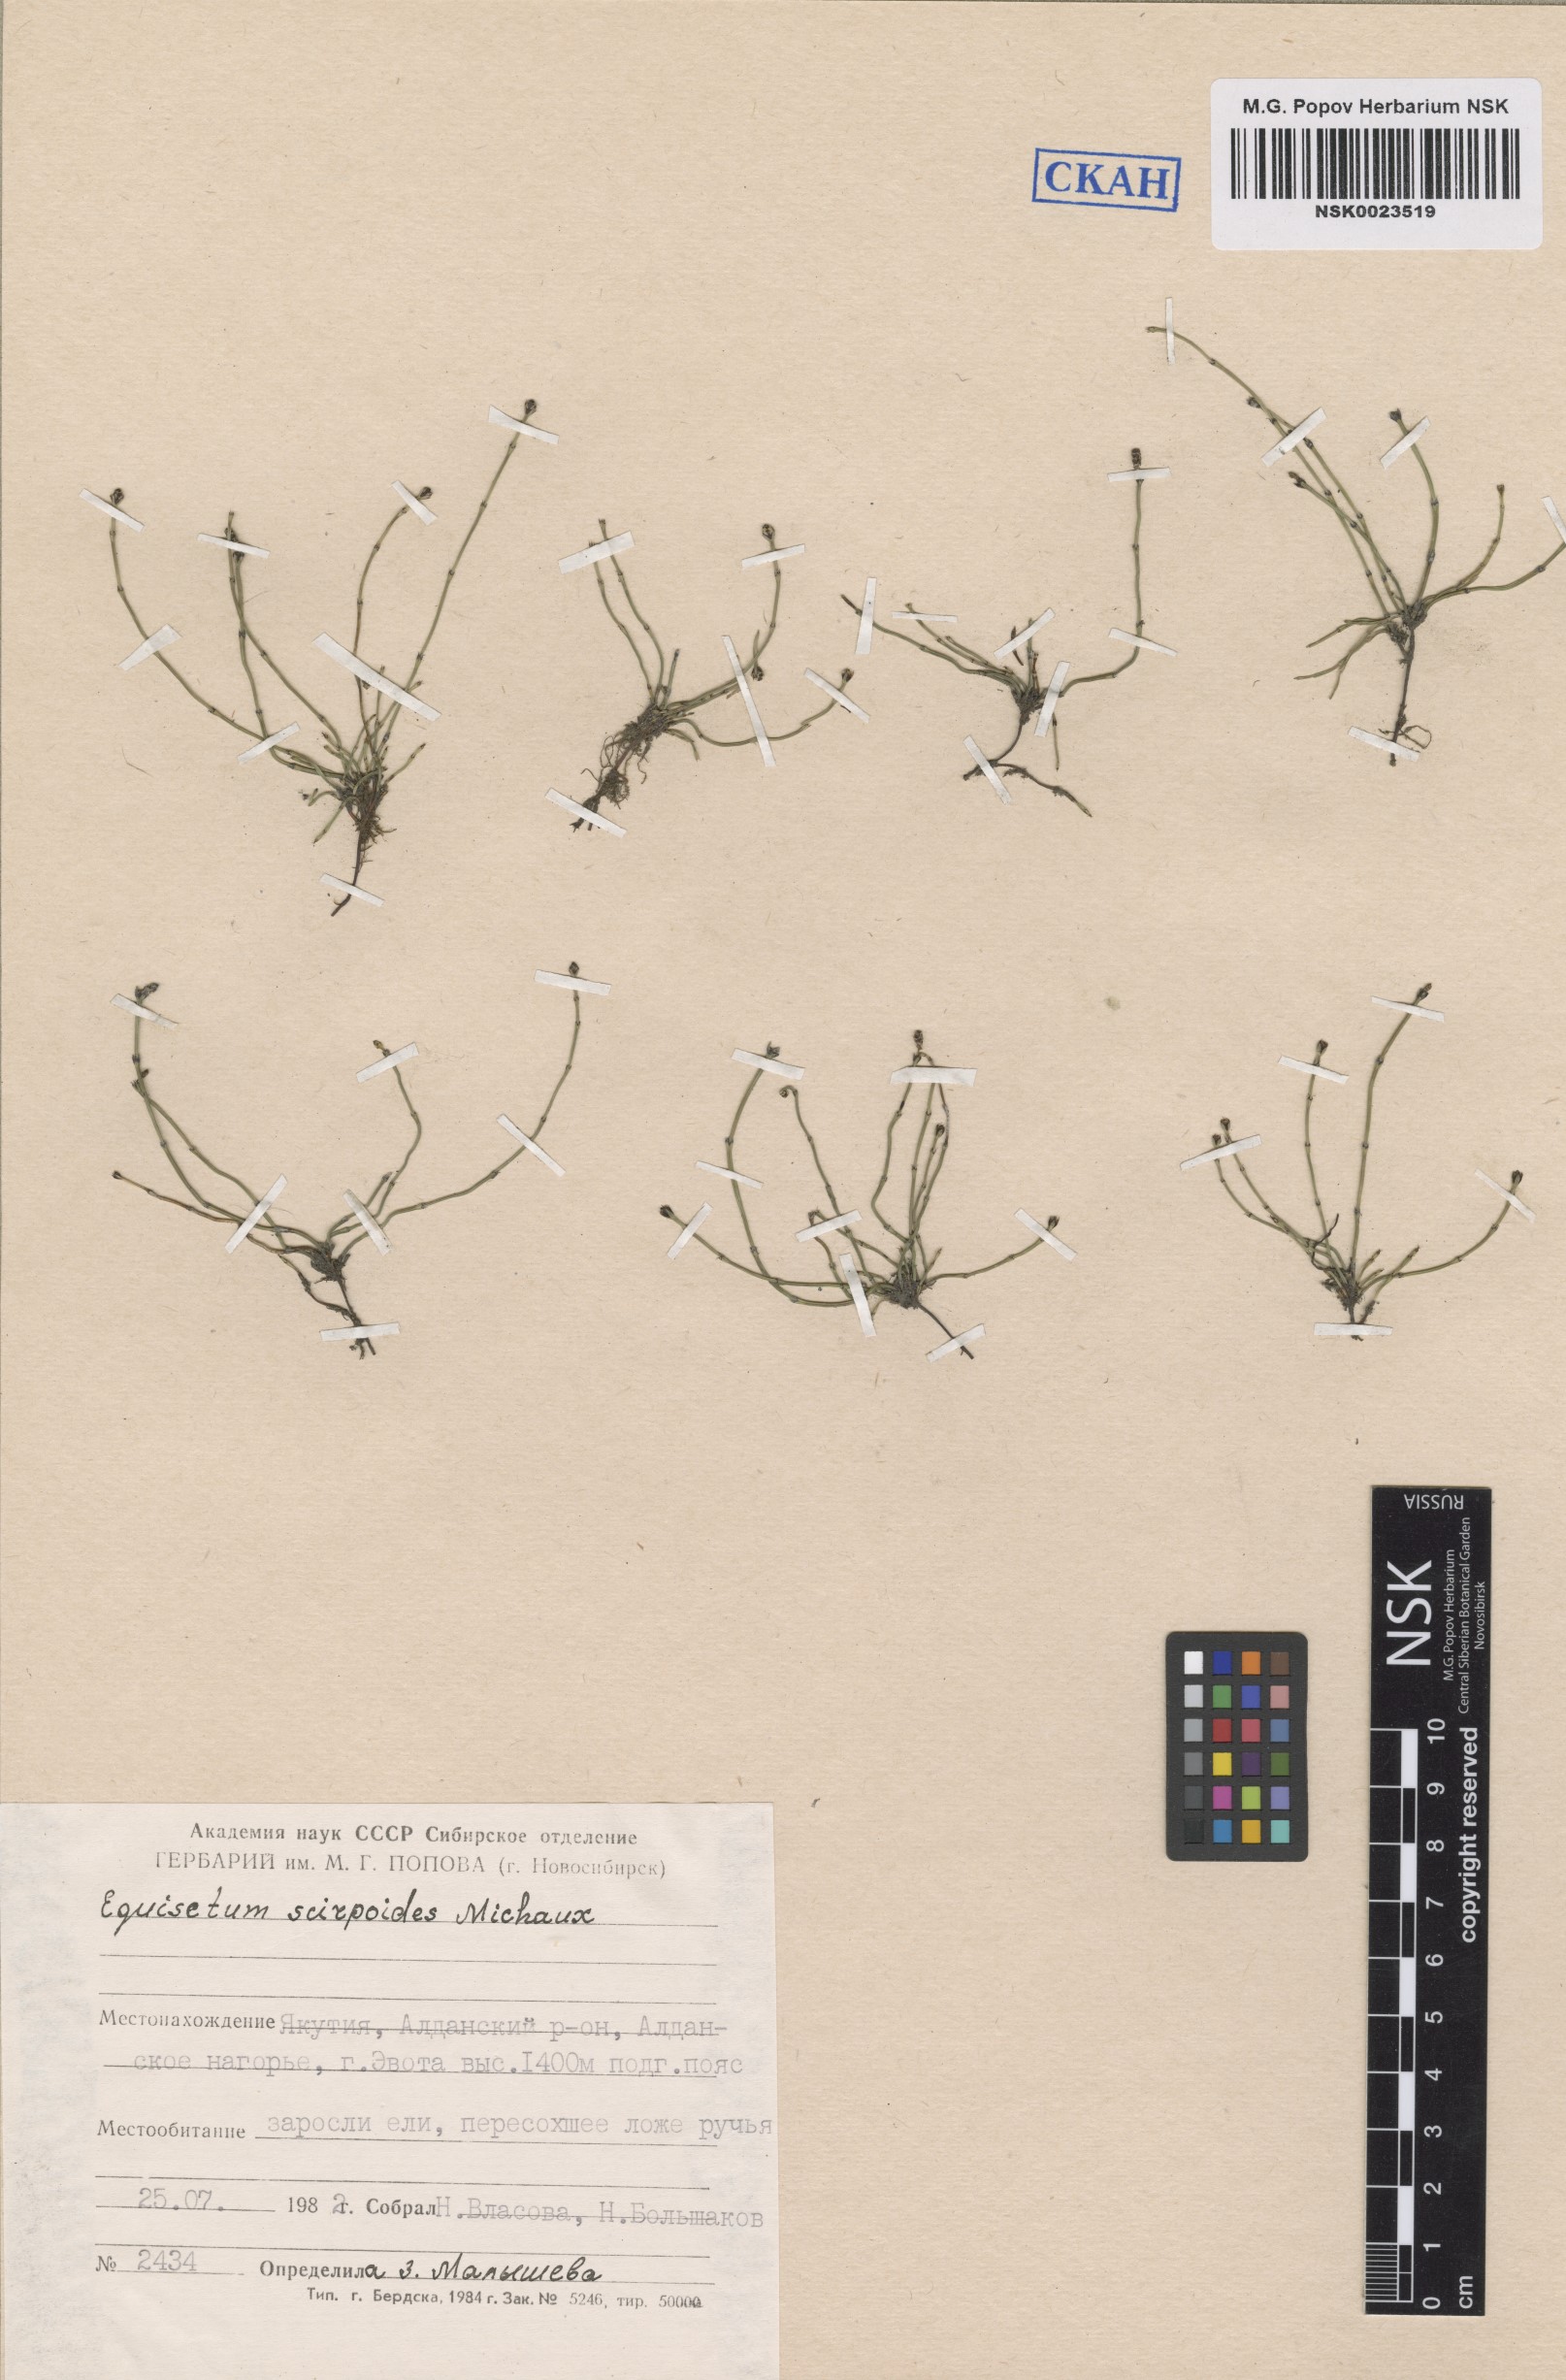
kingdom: Plantae
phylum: Tracheophyta
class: Polypodiopsida
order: Equisetales
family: Equisetaceae
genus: Equisetum
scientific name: Equisetum scirpoides
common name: Delicate horsetail
